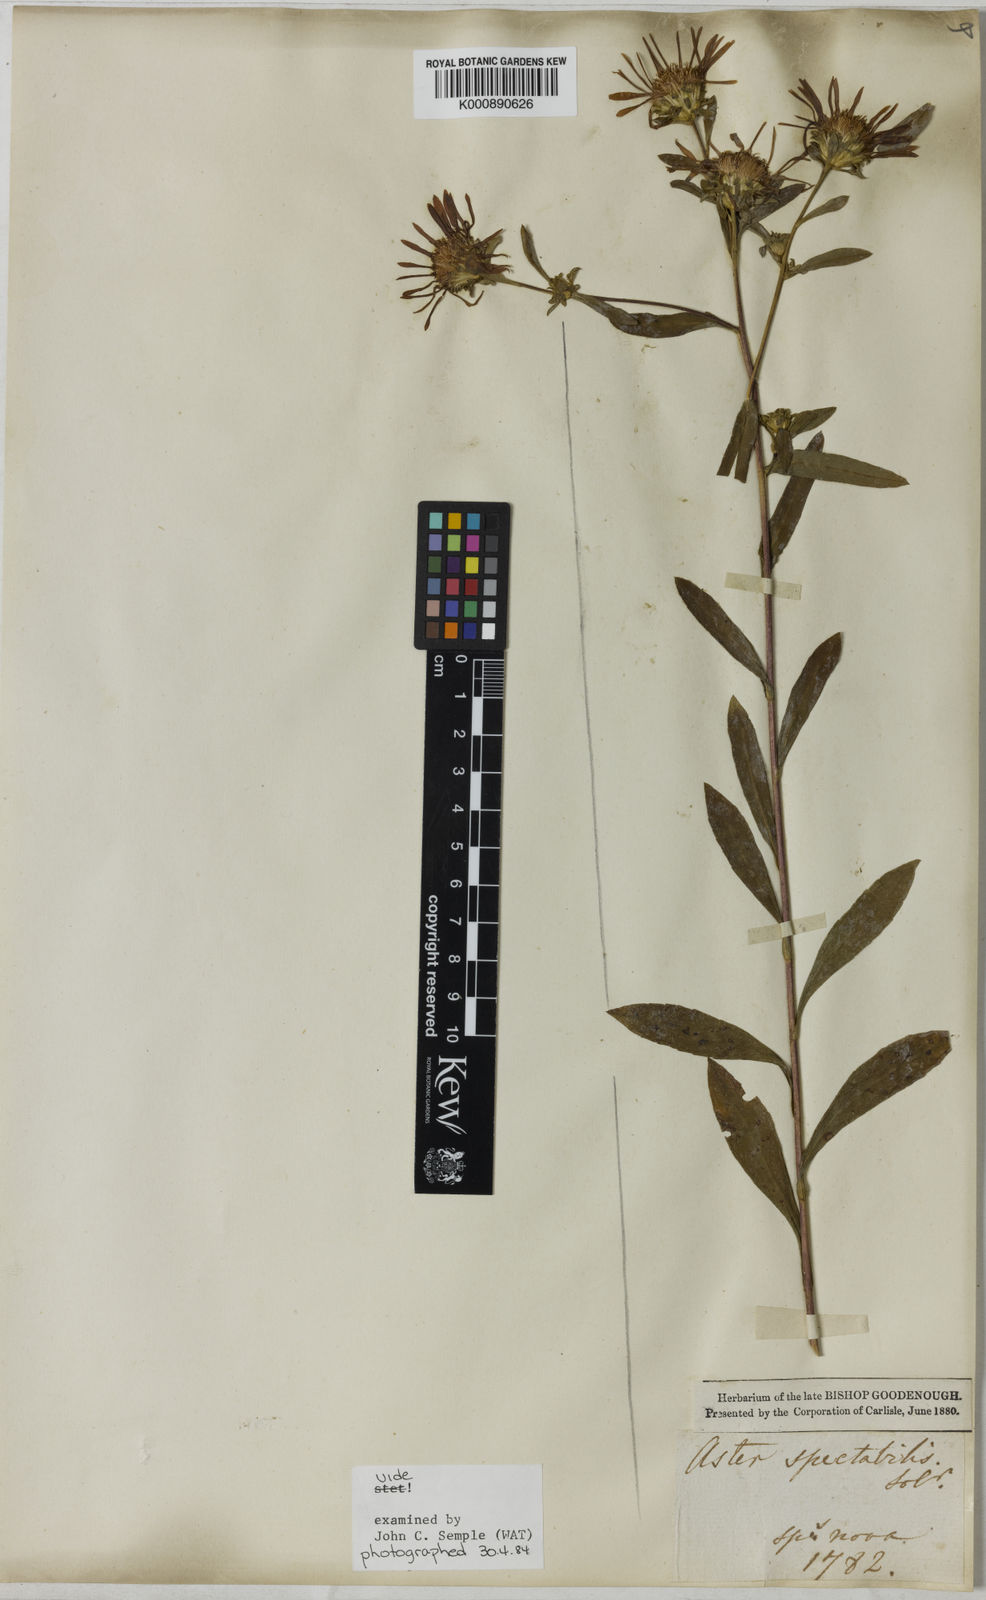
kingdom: Plantae
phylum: Tracheophyta
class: Magnoliopsida
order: Asterales
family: Asteraceae
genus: Eurybia
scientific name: Eurybia spectabilis
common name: Low showy aster
